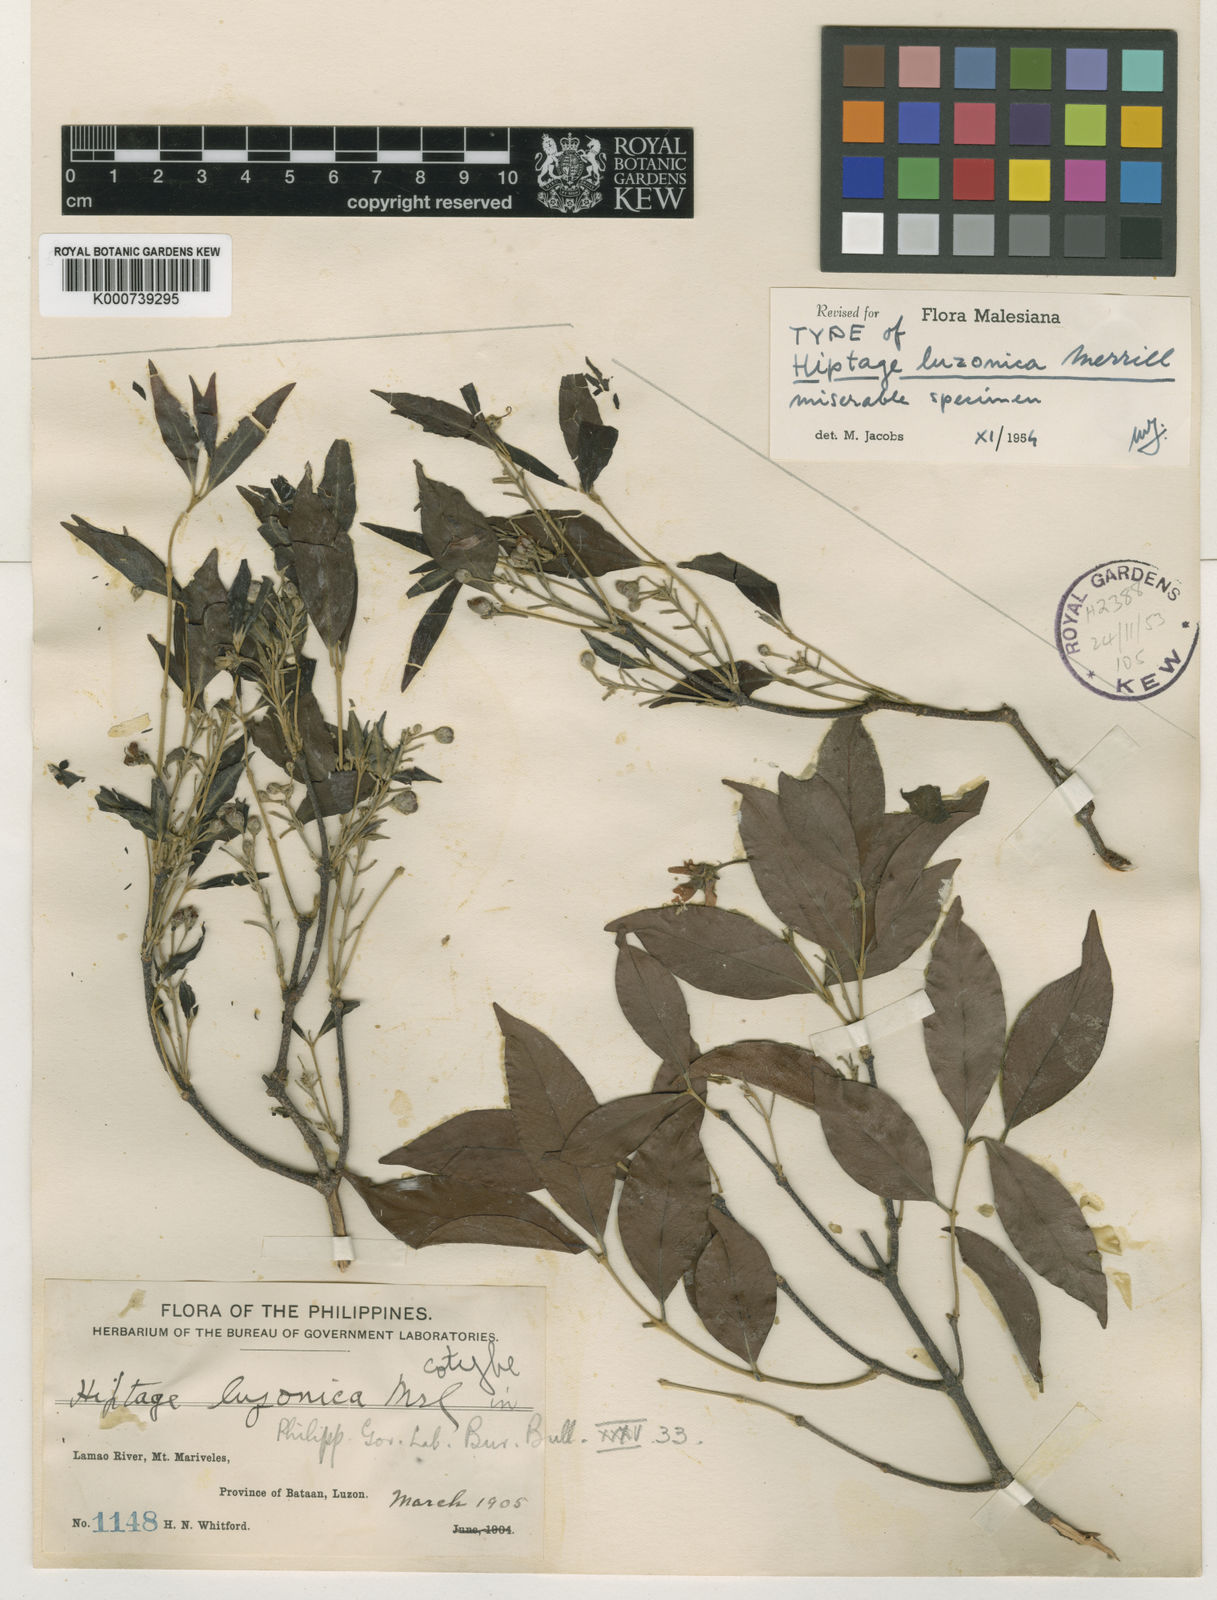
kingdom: Plantae
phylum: Tracheophyta
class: Magnoliopsida
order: Malpighiales
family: Malpighiaceae
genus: Hiptage
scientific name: Hiptage luzonica
